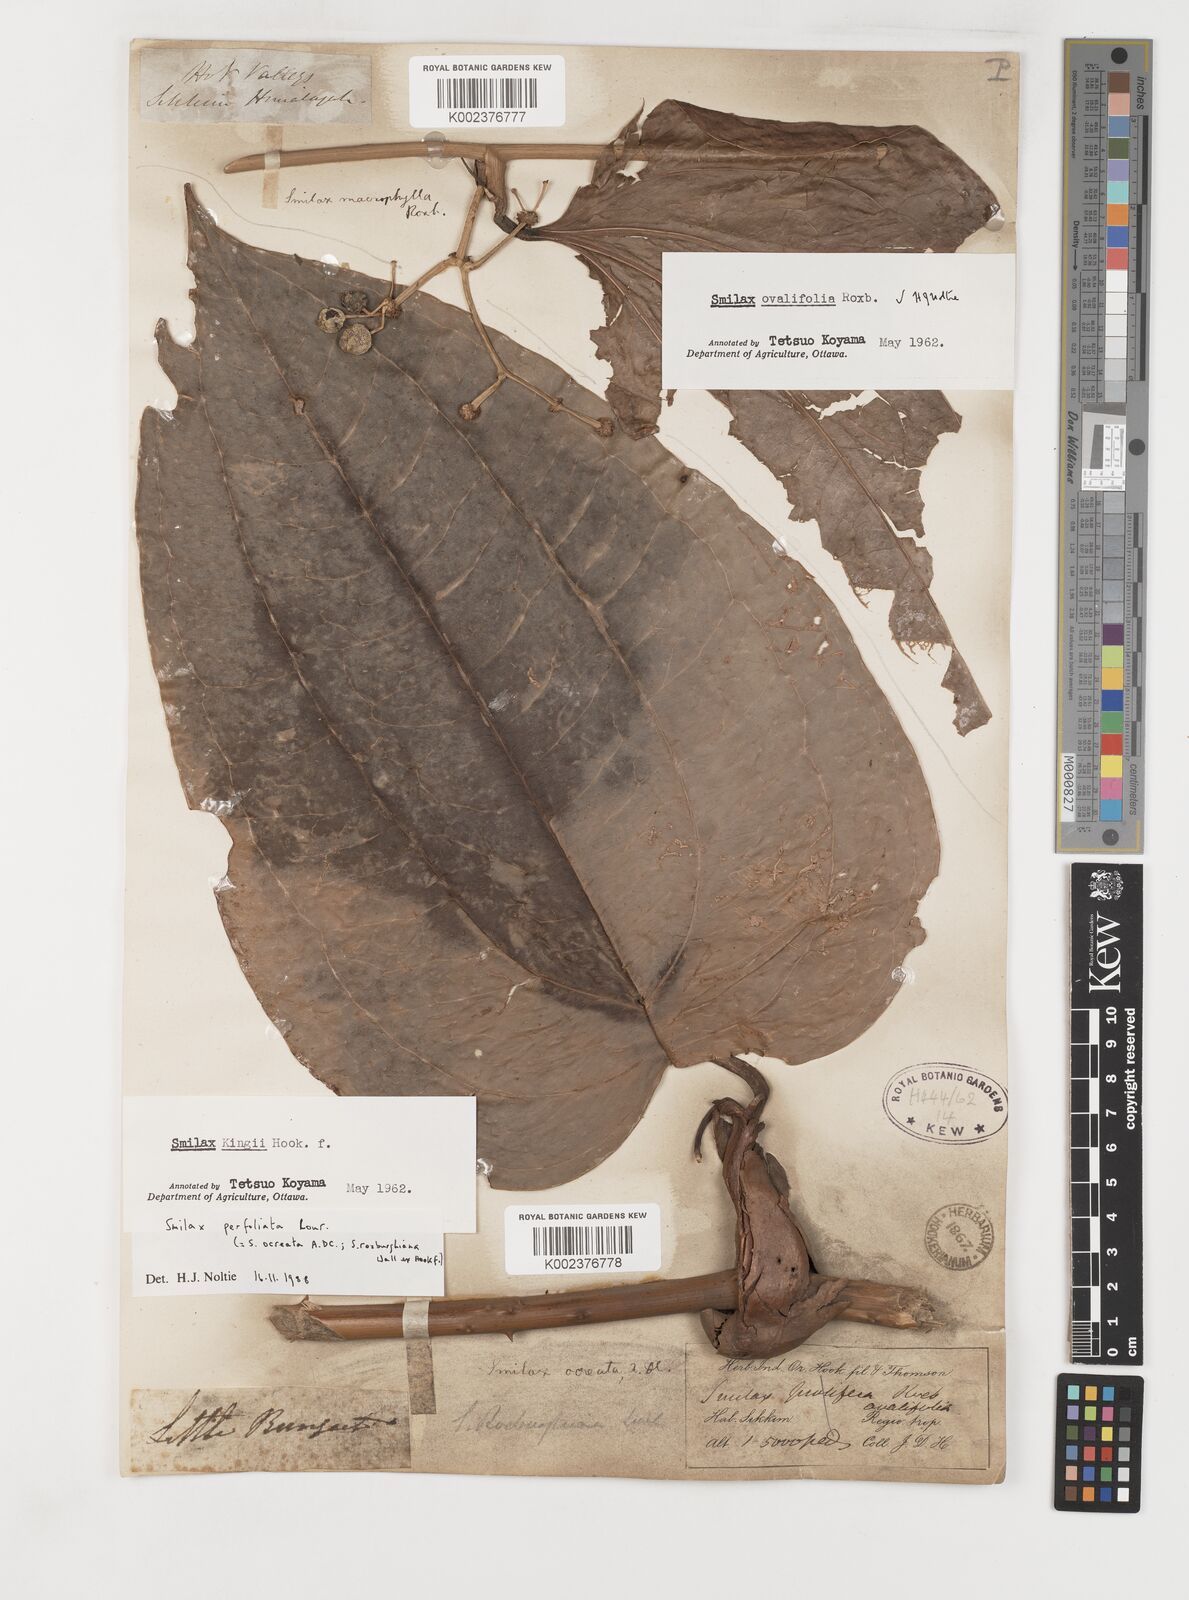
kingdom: Plantae
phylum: Tracheophyta
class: Liliopsida
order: Liliales
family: Smilacaceae
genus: Smilax
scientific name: Smilax ocreata
